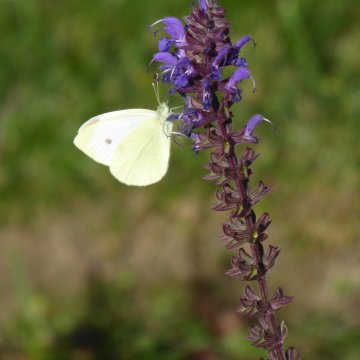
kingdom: Animalia
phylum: Arthropoda
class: Insecta
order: Lepidoptera
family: Pieridae
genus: Pieris
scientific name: Pieris rapae
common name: Cabbage White
